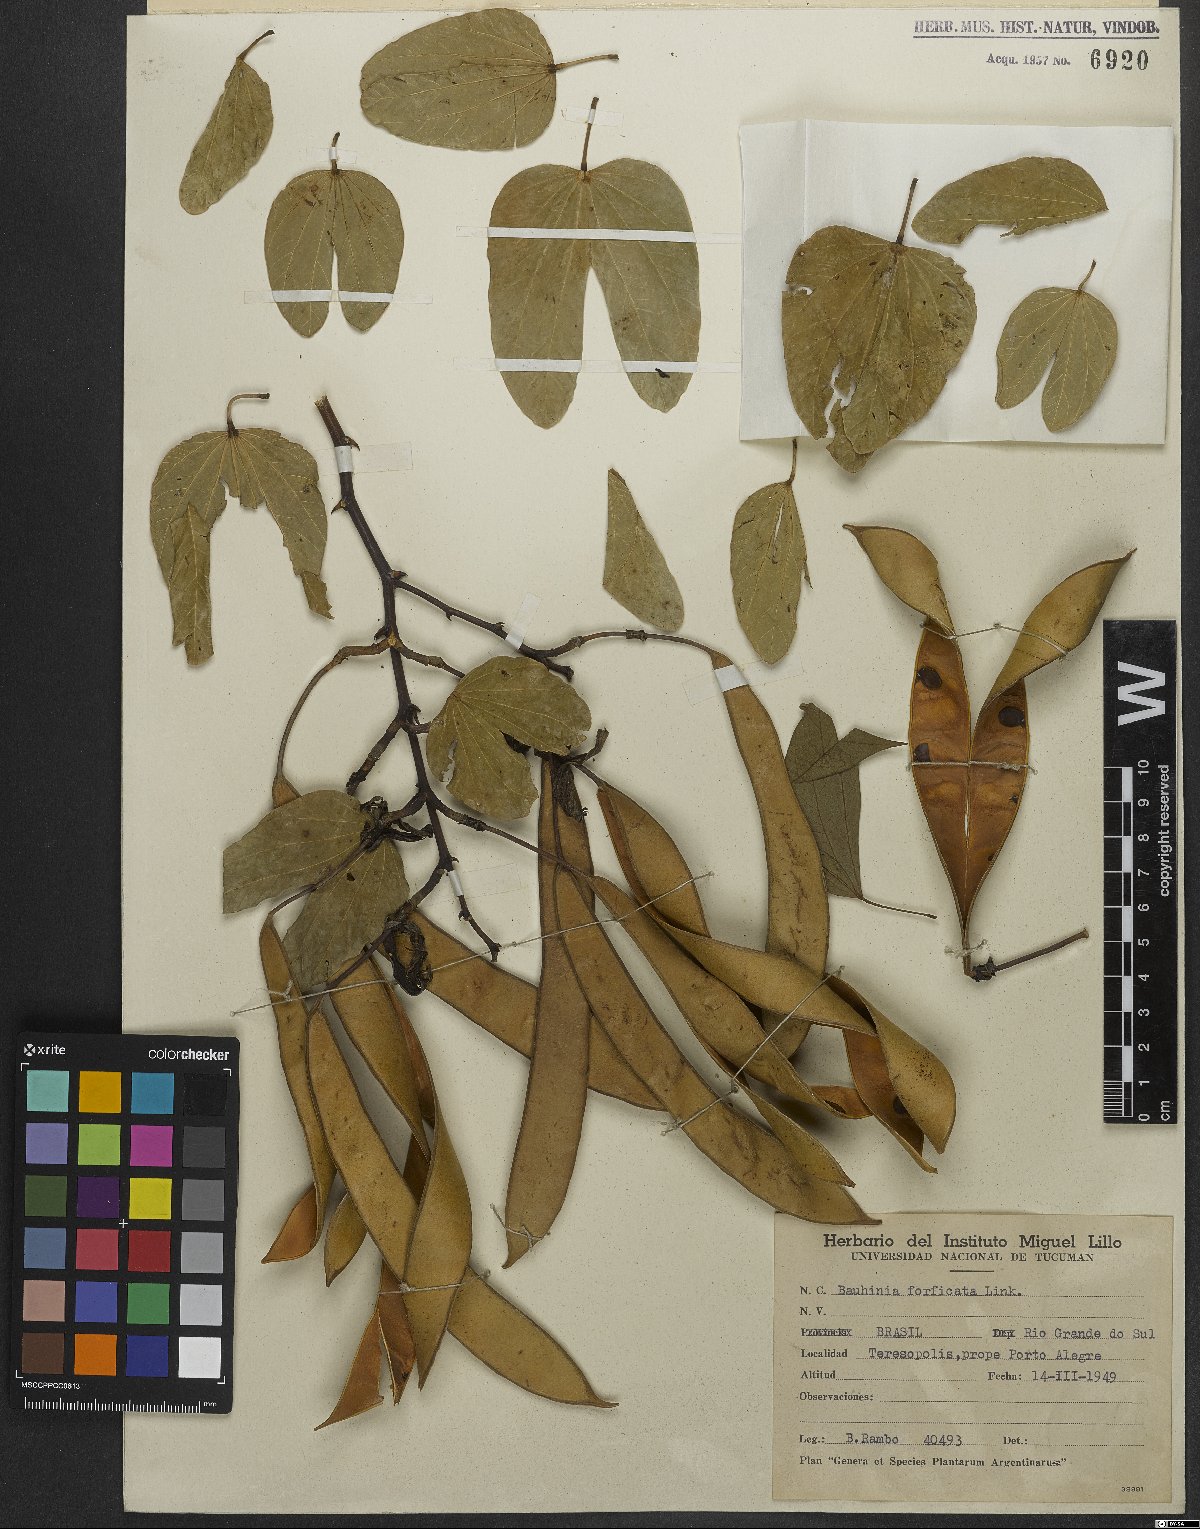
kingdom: Plantae
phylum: Tracheophyta
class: Magnoliopsida
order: Fabales
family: Fabaceae
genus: Bauhinia
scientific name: Bauhinia forficata
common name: Orchid tree
